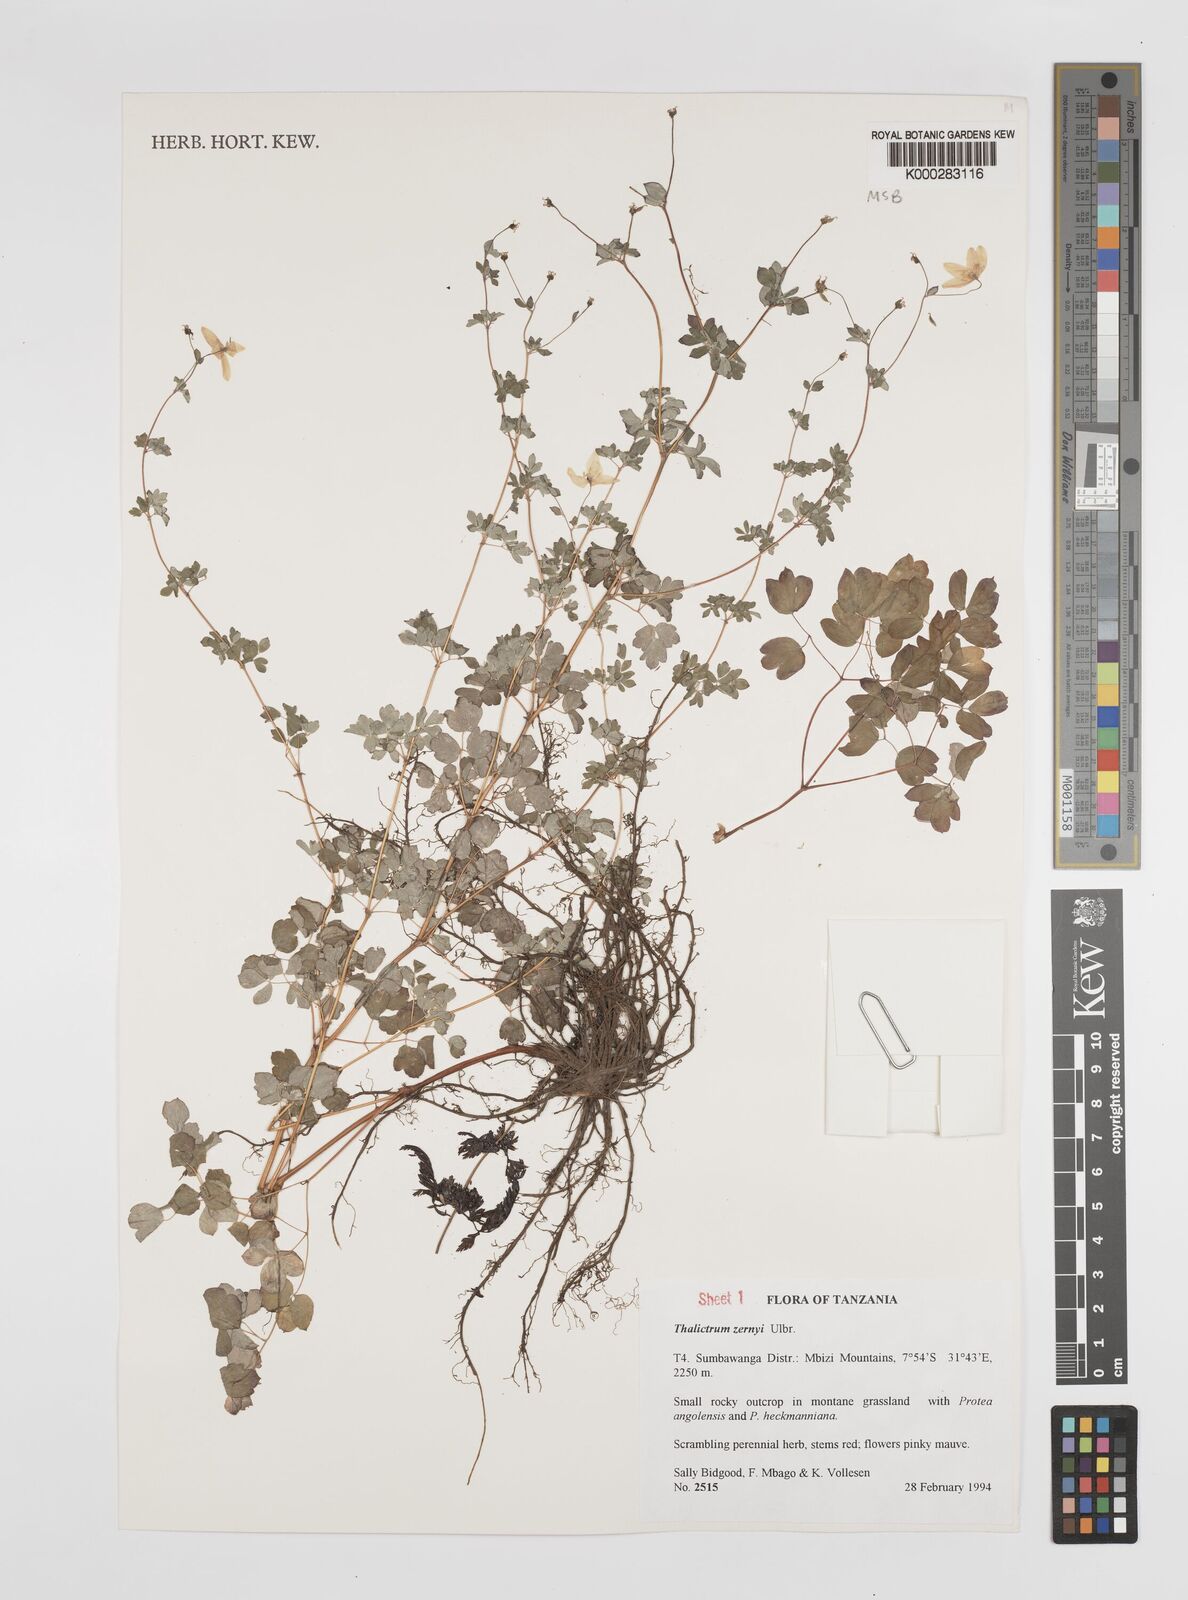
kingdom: Plantae
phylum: Tracheophyta
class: Magnoliopsida
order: Ranunculales
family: Ranunculaceae
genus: Thalictrum
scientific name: Thalictrum zernyi
